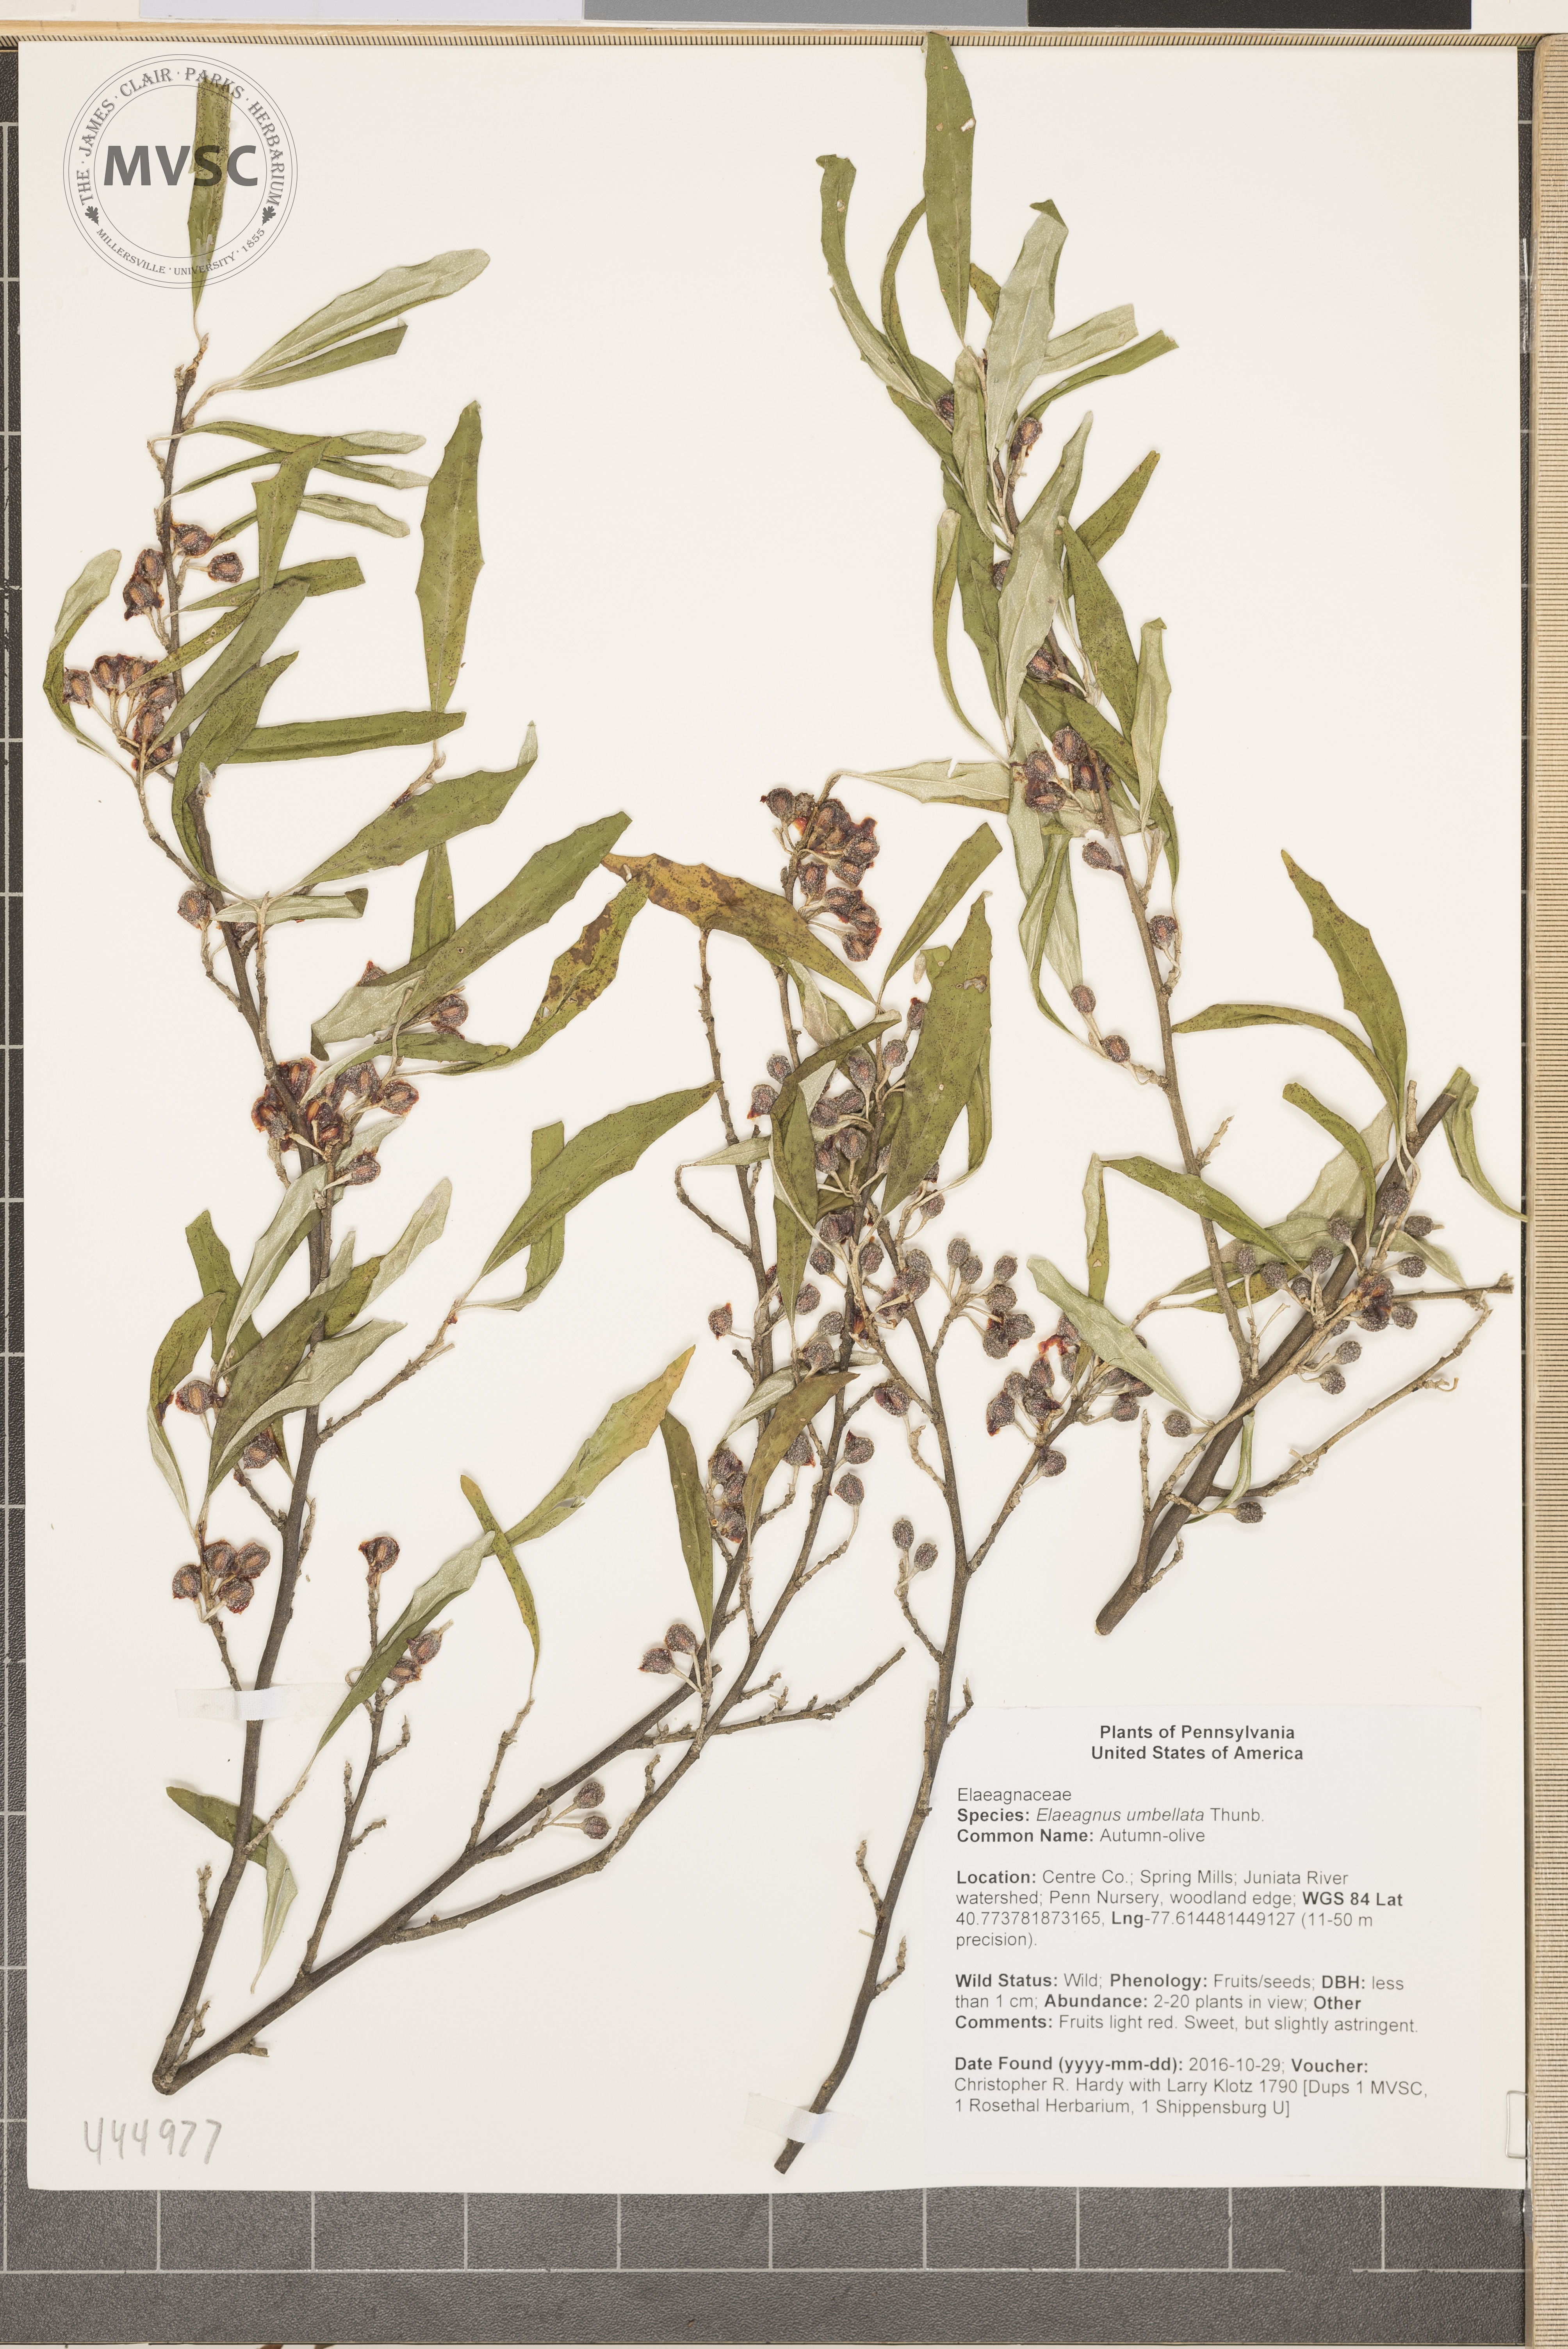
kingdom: Plantae
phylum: Tracheophyta
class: Magnoliopsida
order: Rosales
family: Elaeagnaceae
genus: Elaeagnus
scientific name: Elaeagnus umbellata
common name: Autumn-olive
